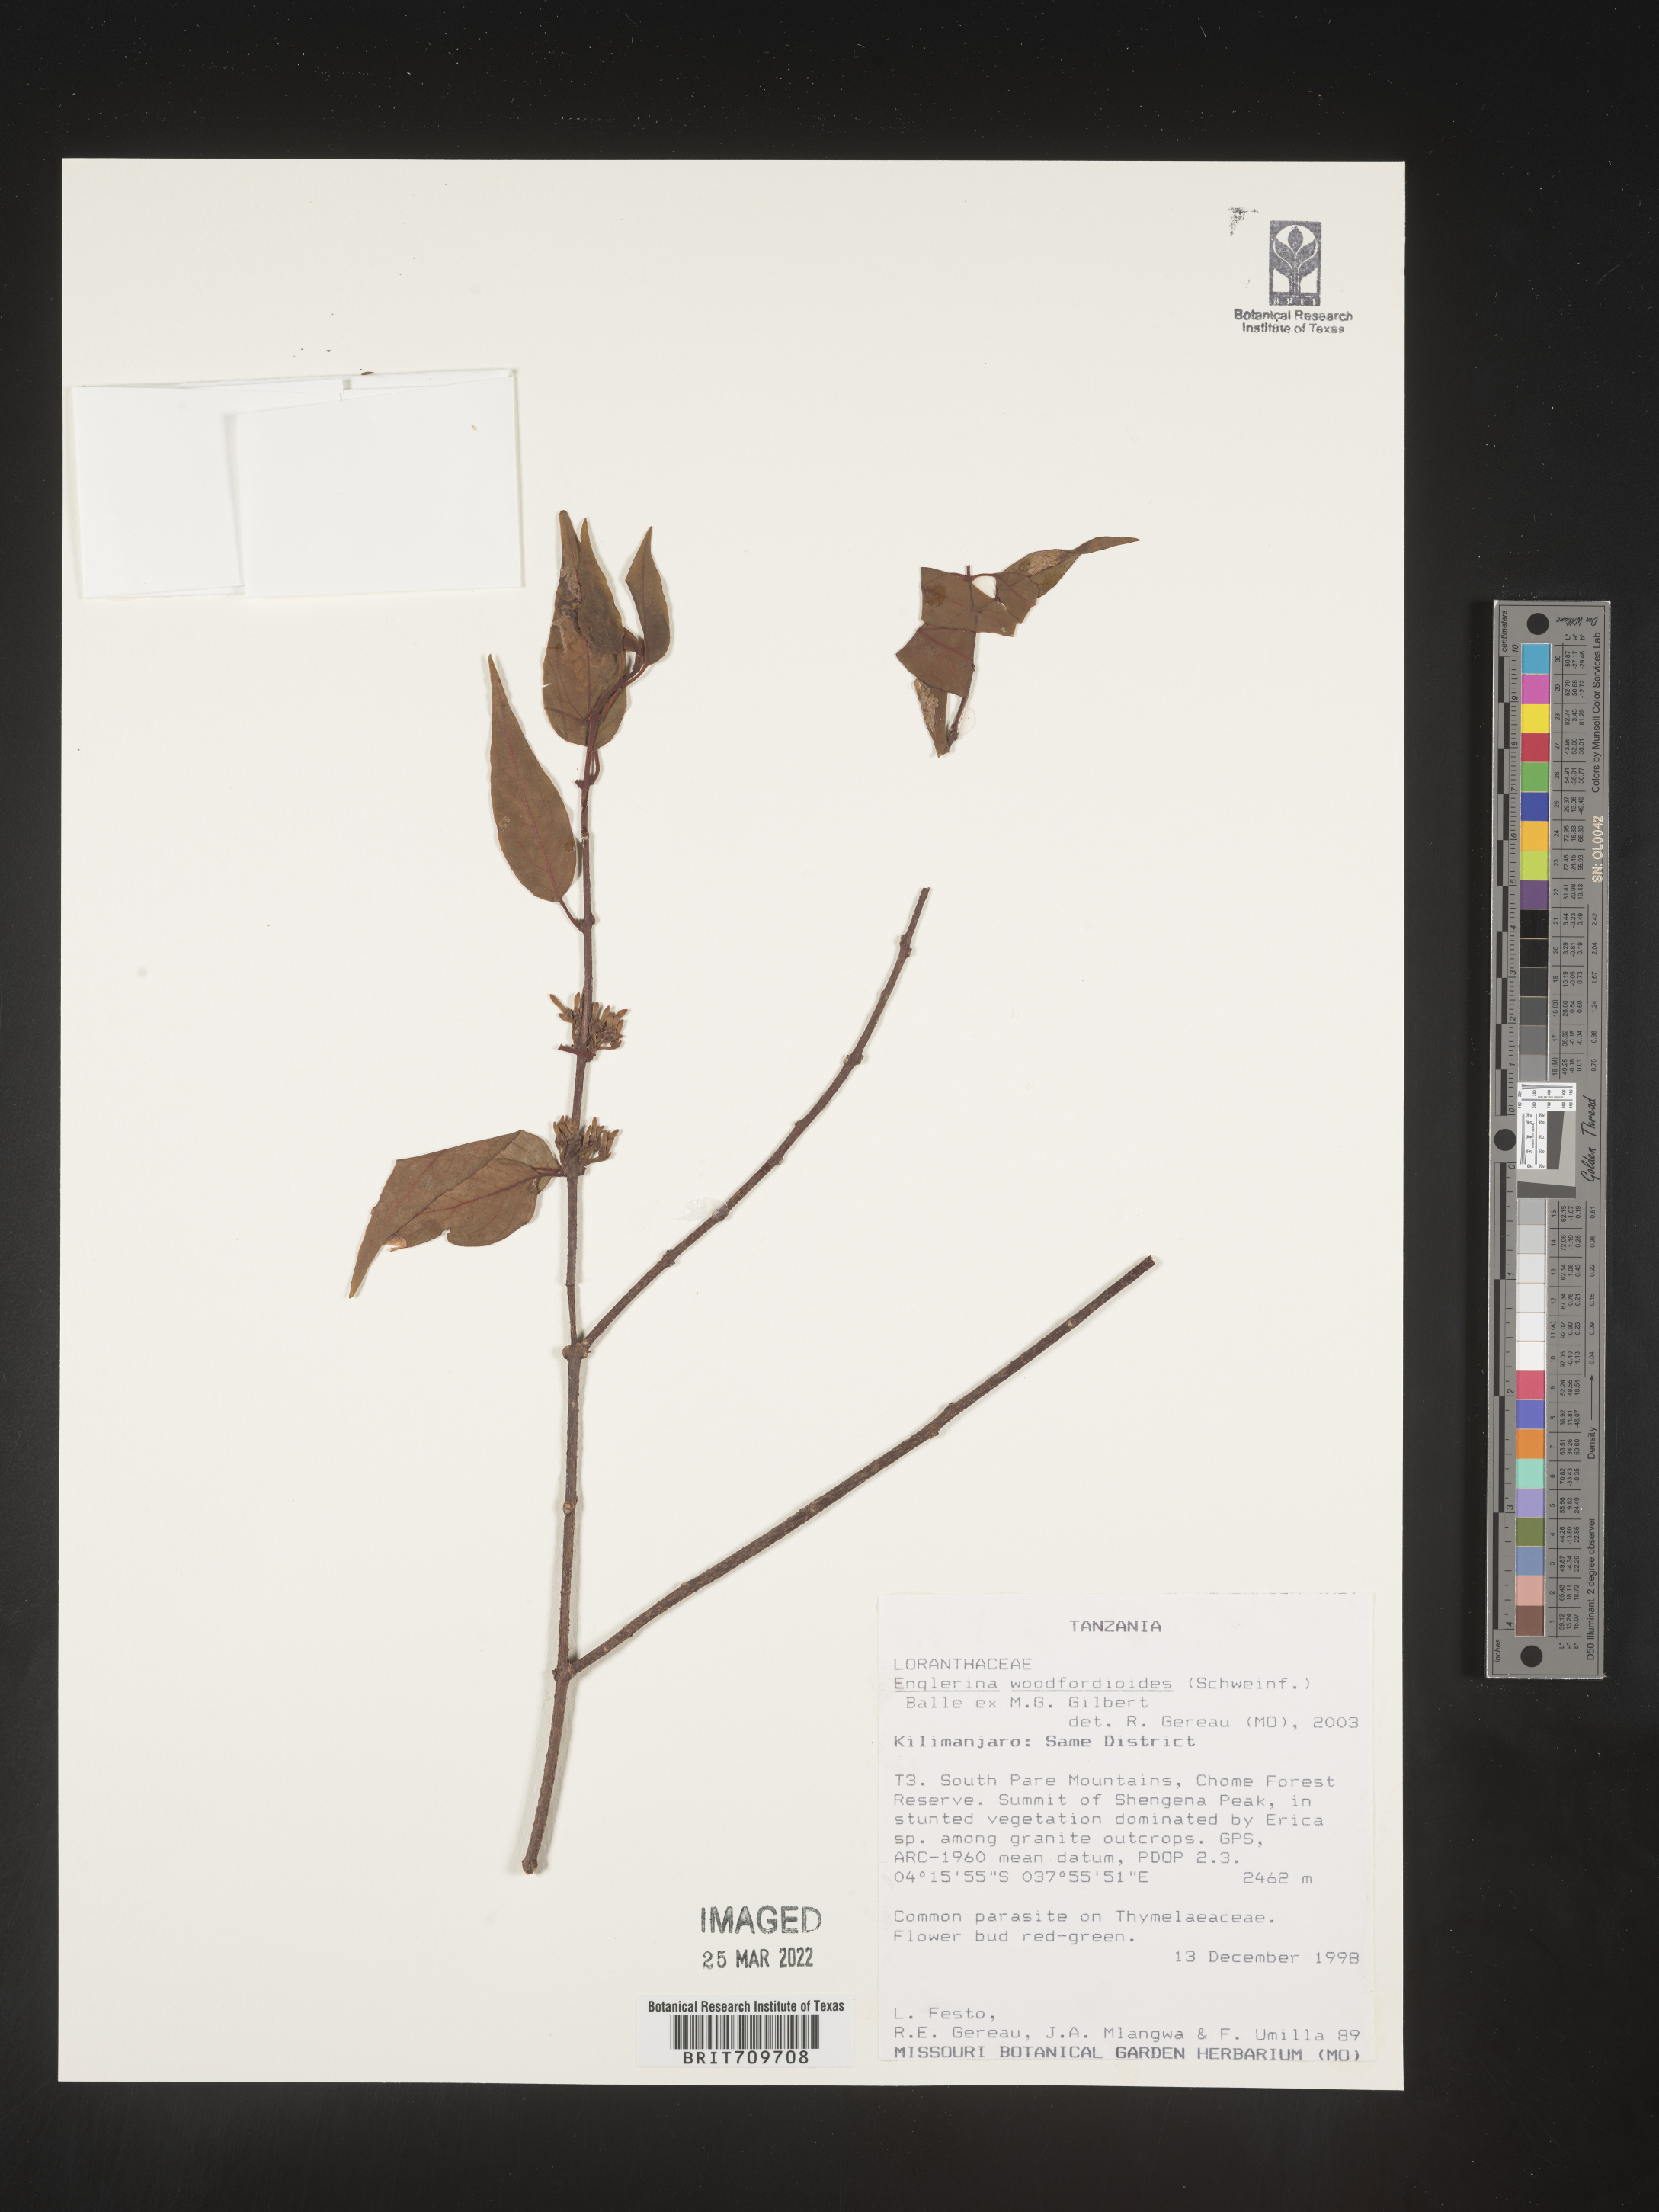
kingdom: Plantae
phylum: Tracheophyta
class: Magnoliopsida
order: Santalales
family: Loranthaceae
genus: Englerina
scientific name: Englerina
